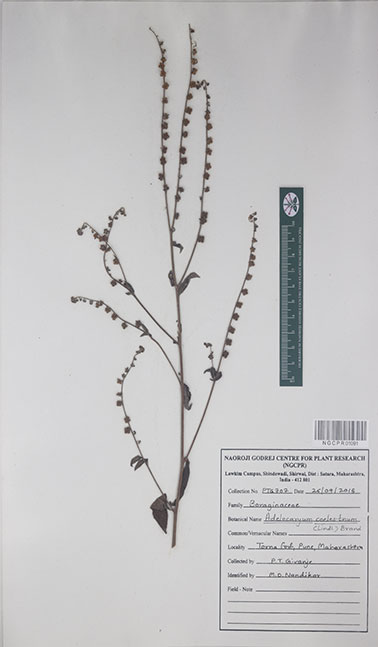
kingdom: Plantae
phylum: Tracheophyta
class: Magnoliopsida
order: Boraginales
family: Boraginaceae
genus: Paracaryum
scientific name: Paracaryum coelestinum
